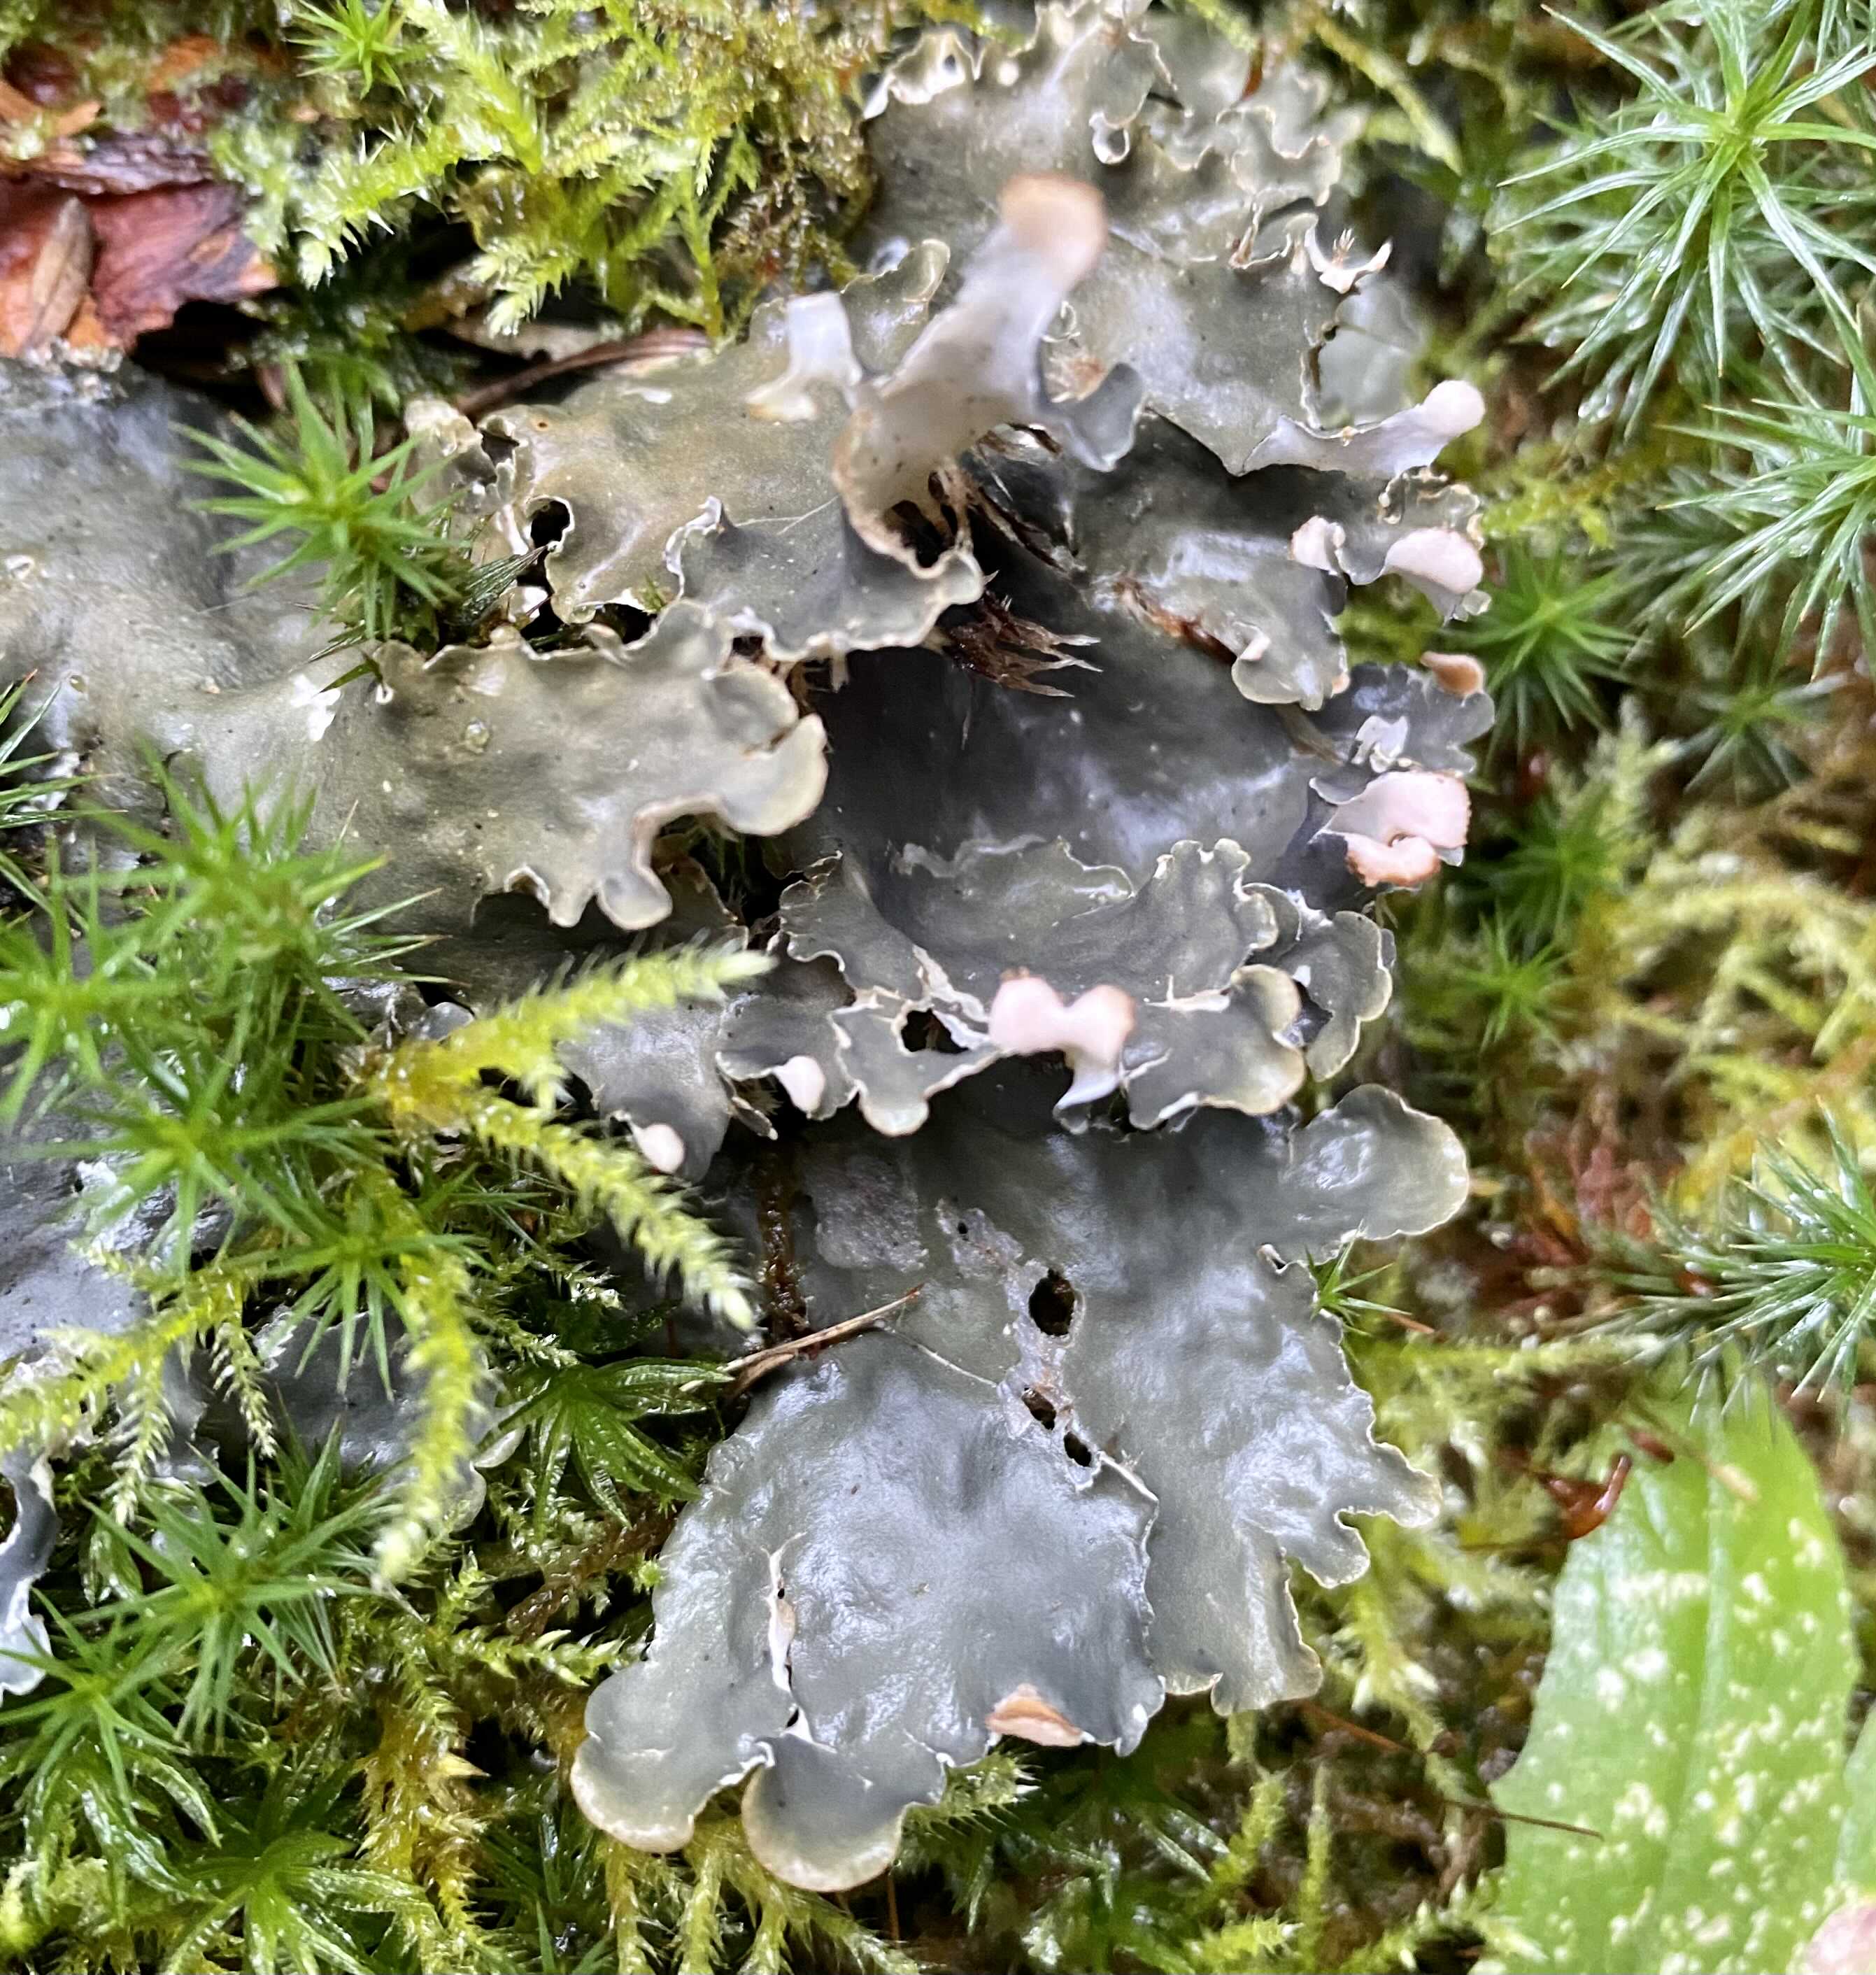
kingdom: Fungi
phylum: Ascomycota
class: Lecanoromycetes
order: Peltigerales
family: Peltigeraceae
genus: Peltigera
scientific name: Peltigera
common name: skjoldlav
